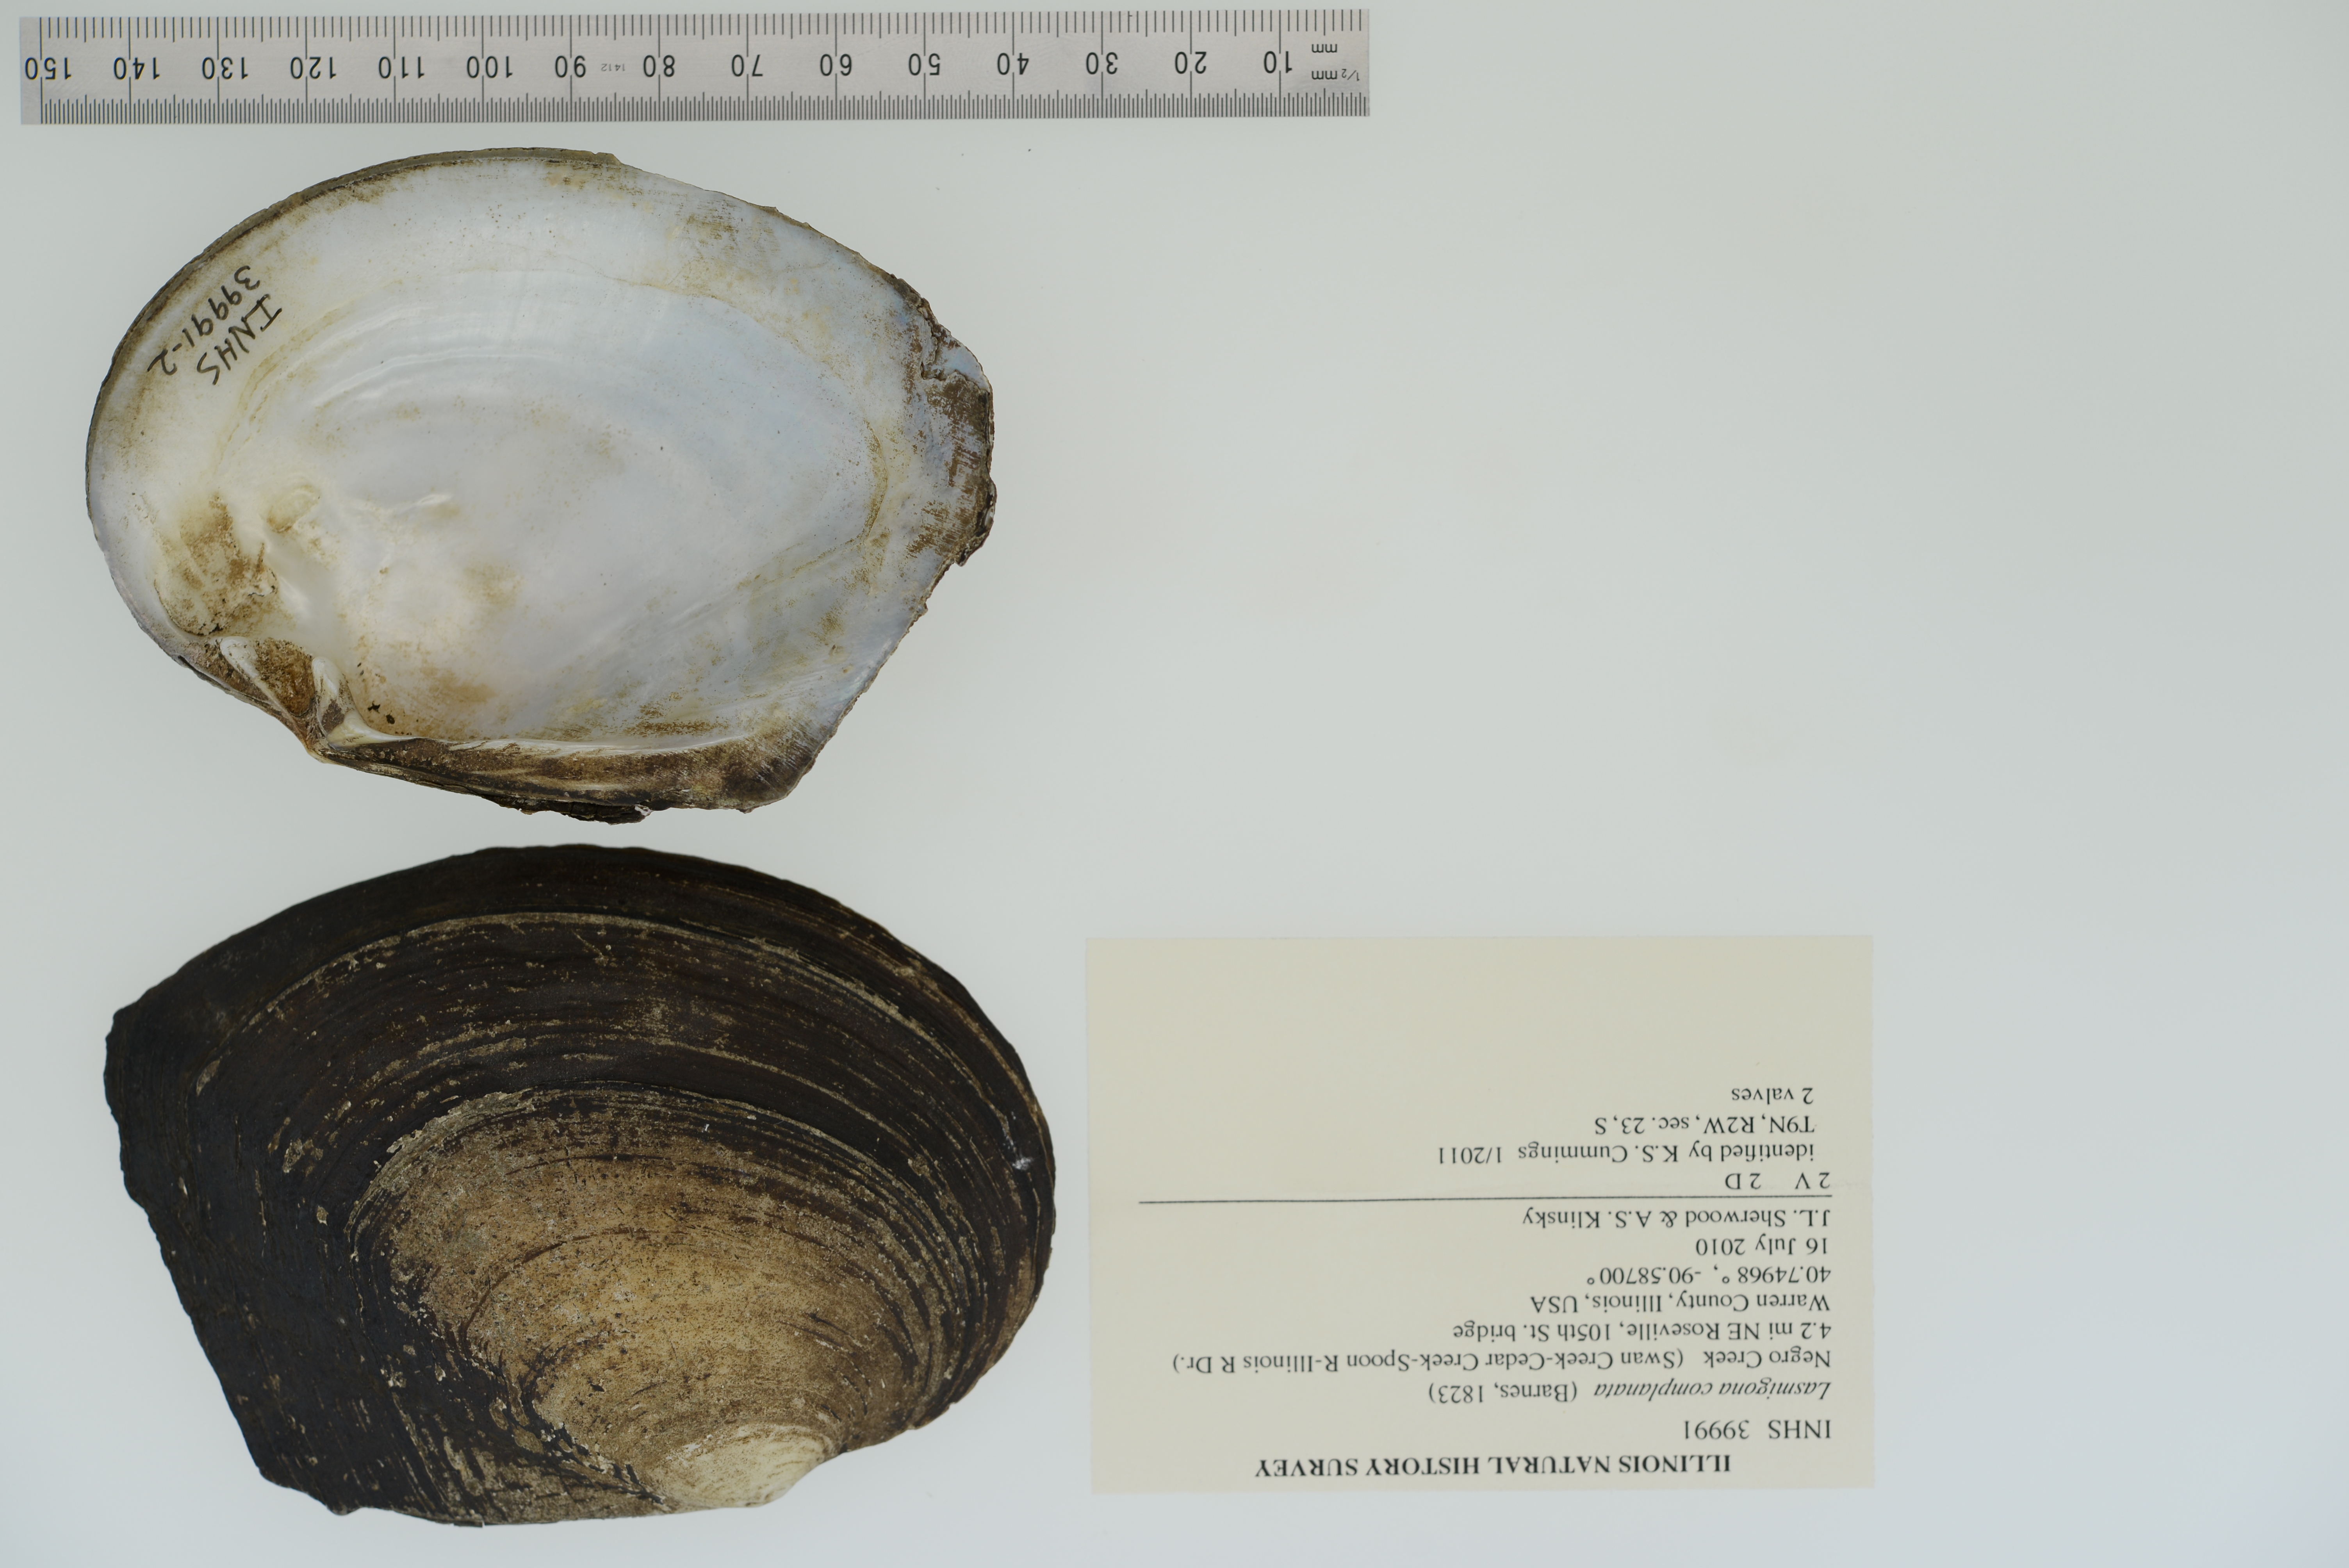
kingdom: Animalia
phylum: Mollusca
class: Bivalvia
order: Unionida
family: Unionidae
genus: Lasmigona
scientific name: Lasmigona complanata
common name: White heelsplitter
